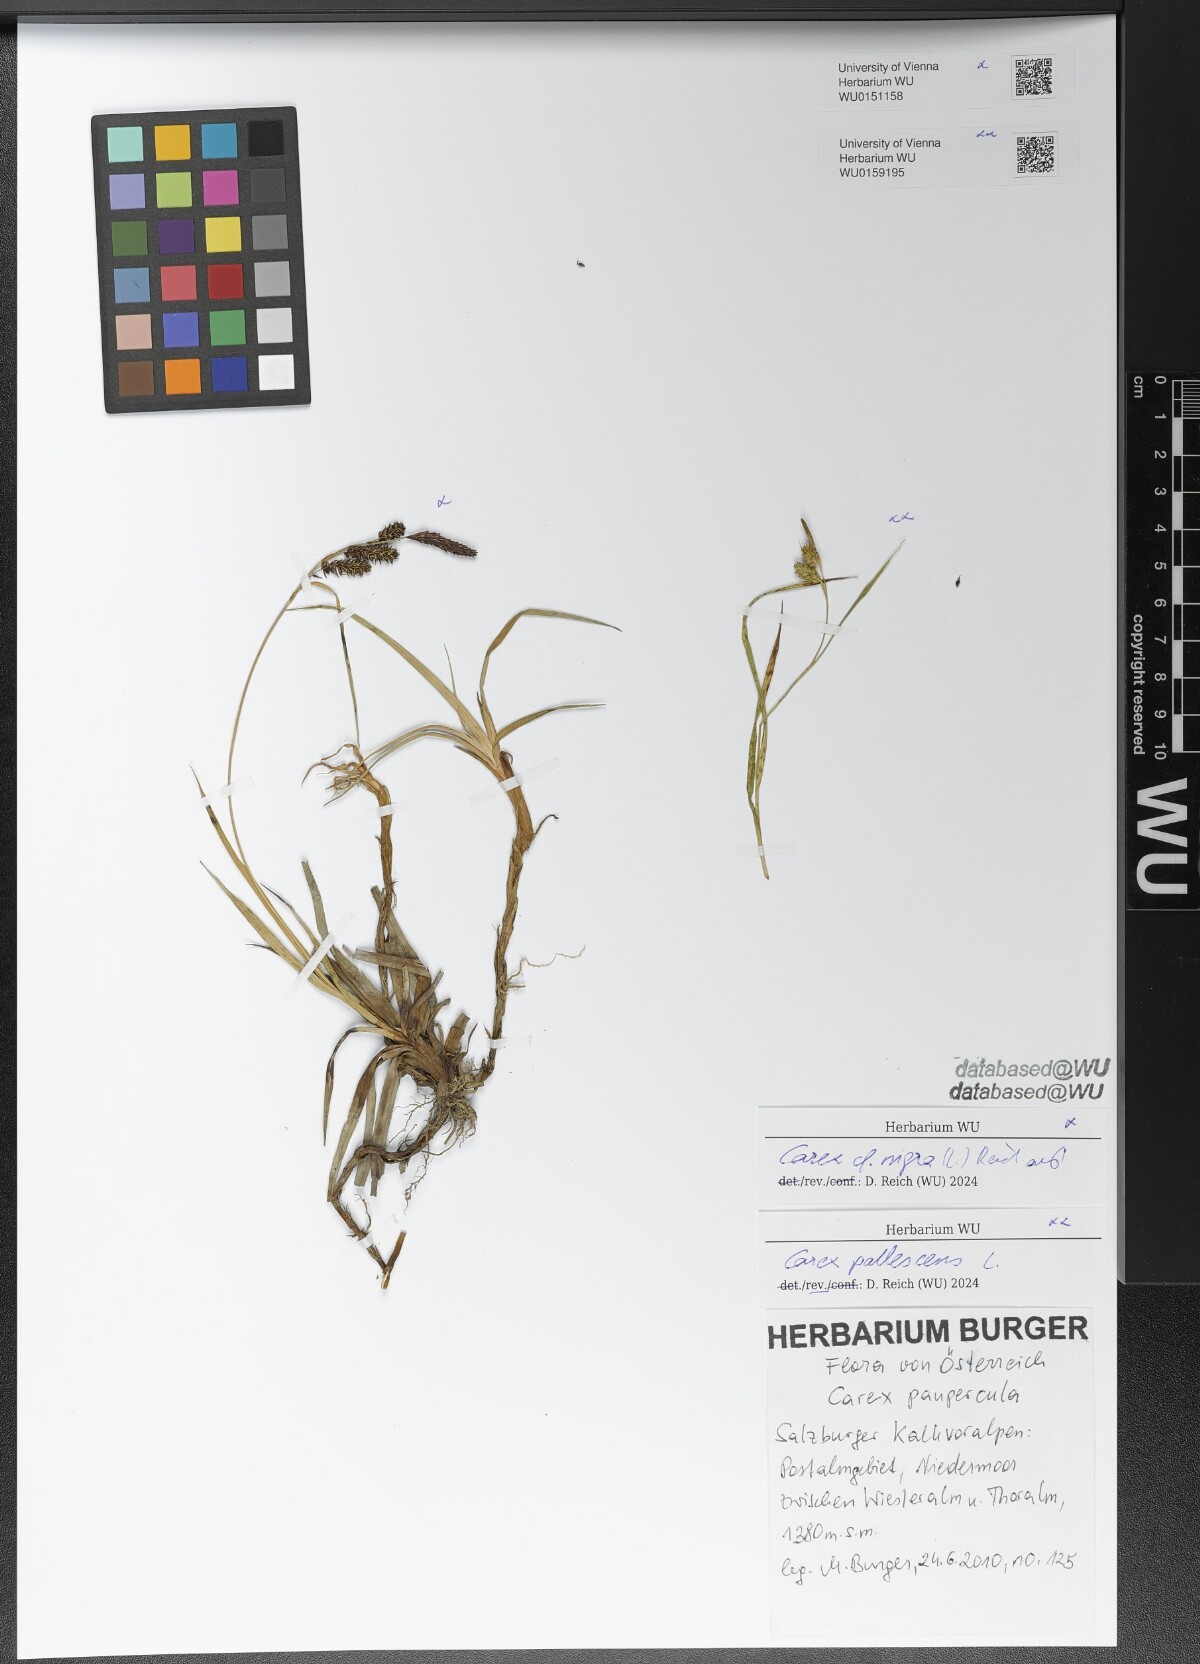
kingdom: Plantae
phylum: Tracheophyta
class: Liliopsida
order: Poales
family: Cyperaceae
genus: Carex
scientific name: Carex pallescens
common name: Pale sedge
